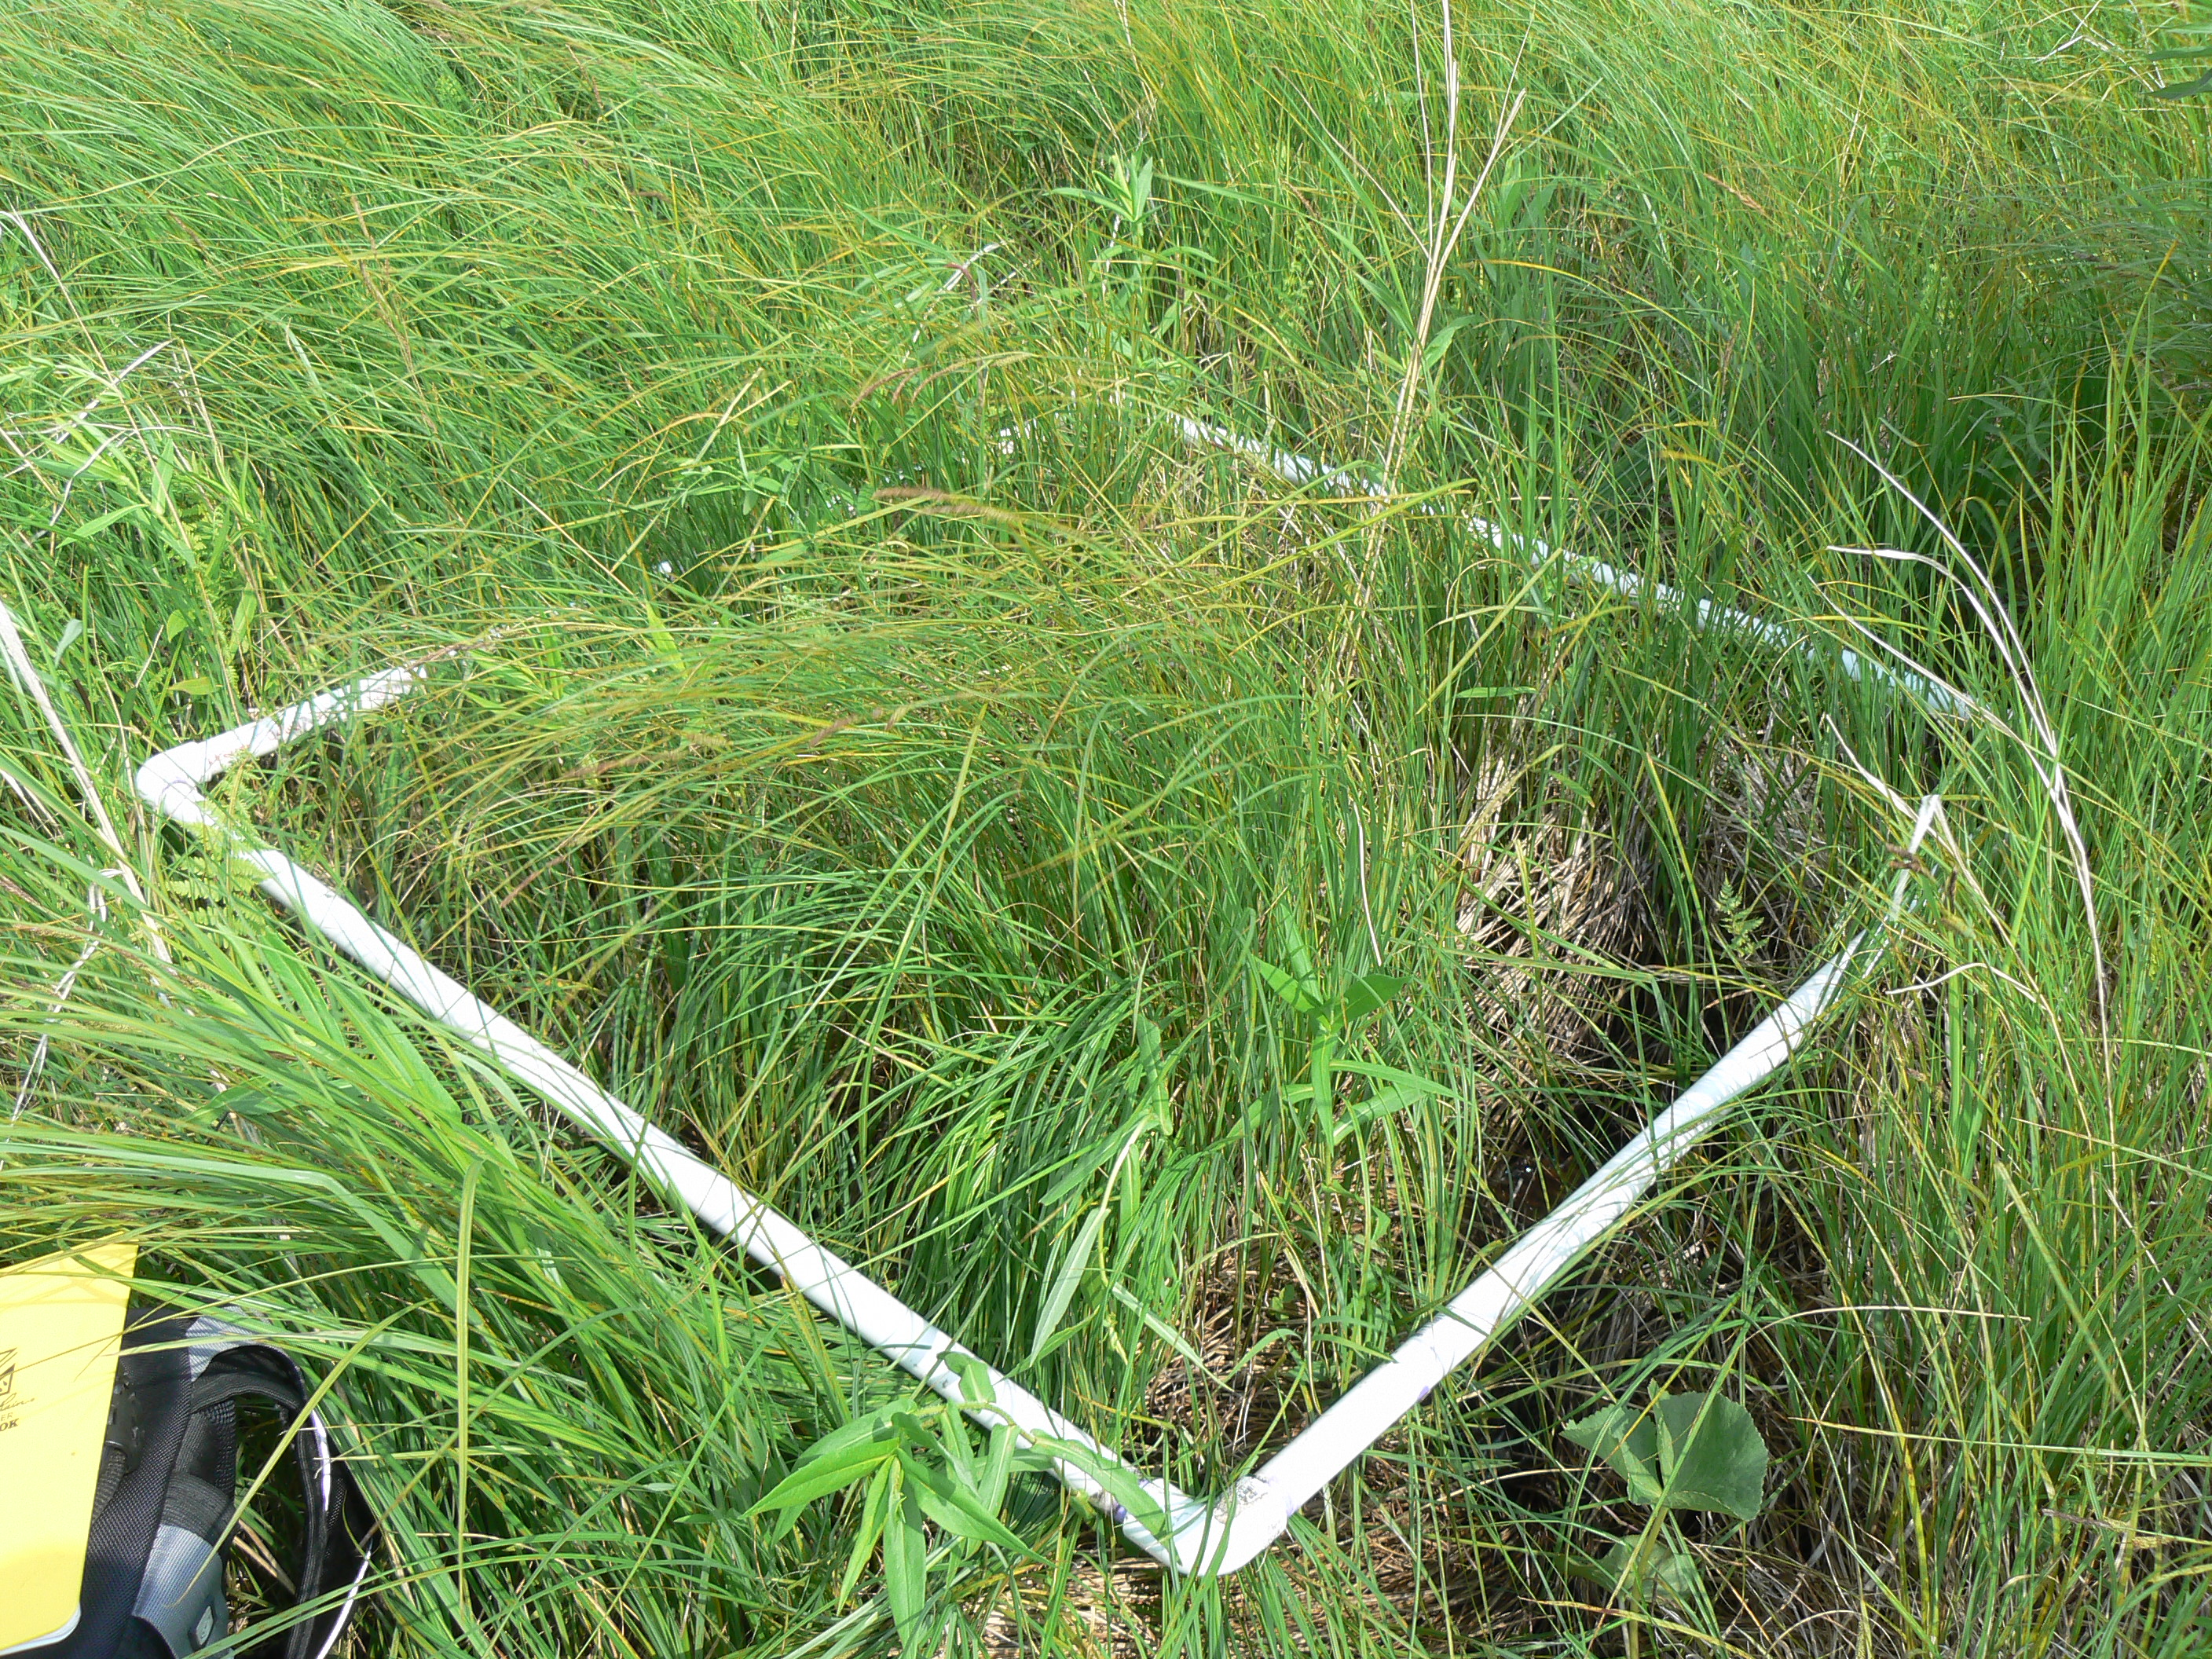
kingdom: Plantae
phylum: Tracheophyta
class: Magnoliopsida
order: Asterales
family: Asteraceae
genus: Solidago
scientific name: Solidago gigantea
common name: Giant goldenrod
